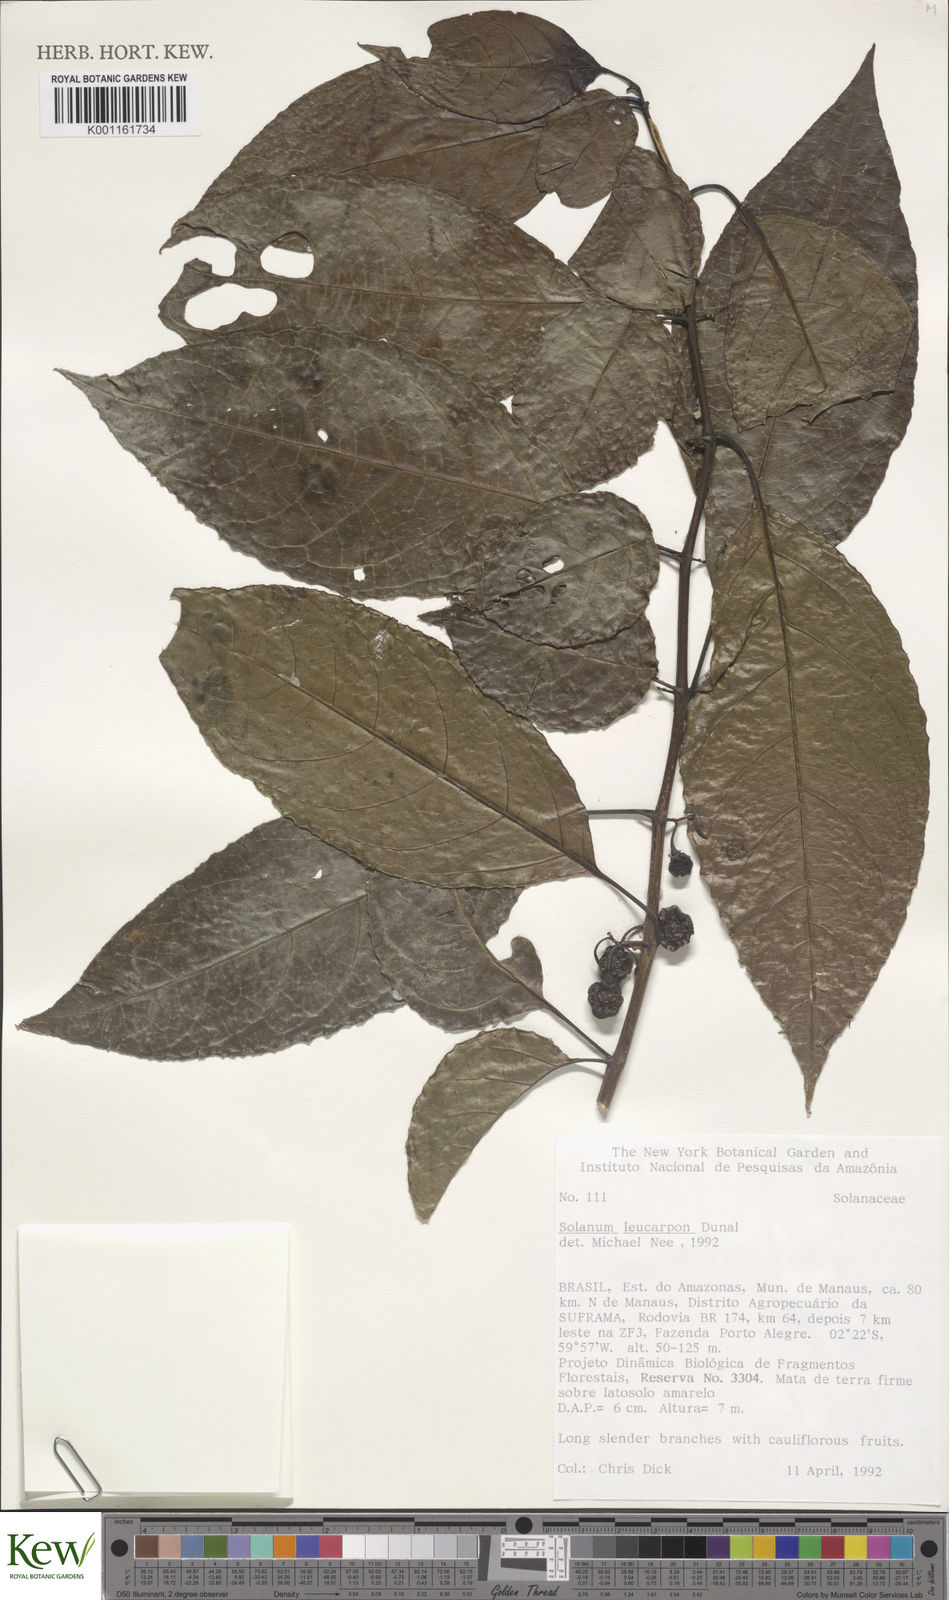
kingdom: Plantae
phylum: Tracheophyta
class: Magnoliopsida
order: Solanales
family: Solanaceae
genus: Solanum
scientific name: Solanum leucocarpon
